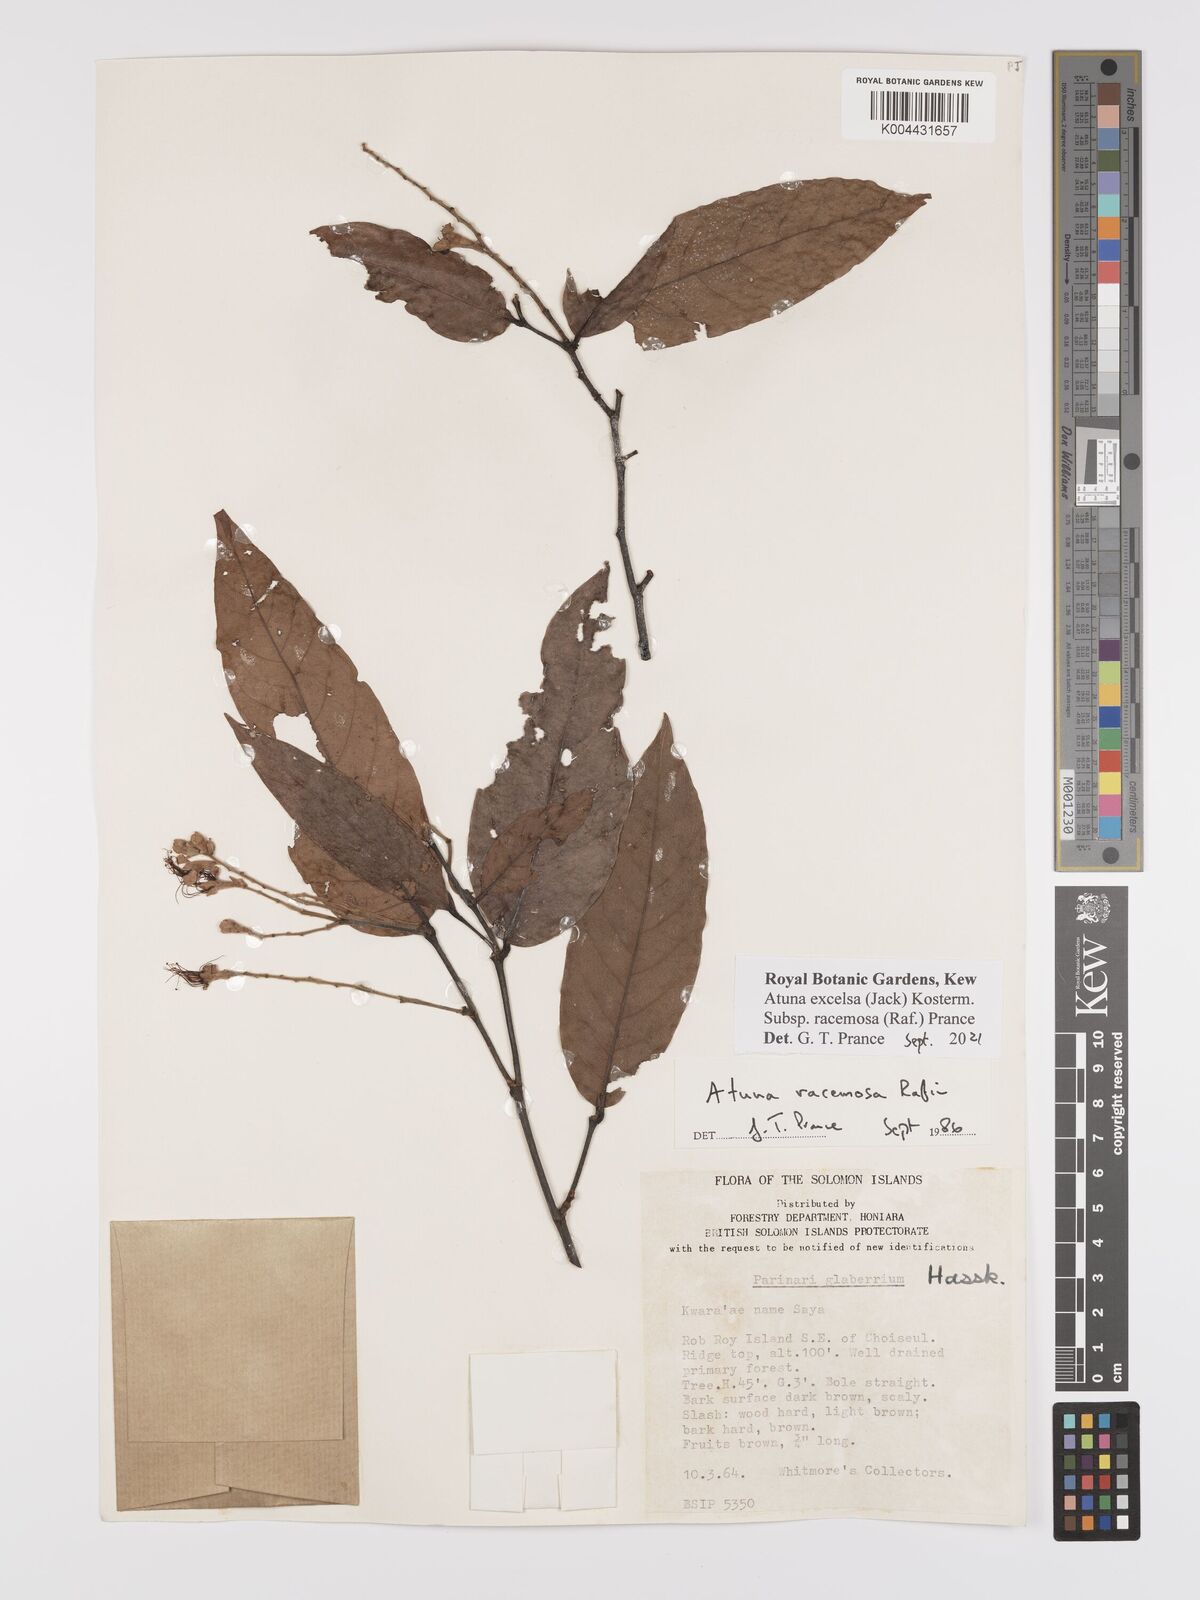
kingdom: Plantae
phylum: Tracheophyta
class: Magnoliopsida
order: Malpighiales
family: Chrysobalanaceae
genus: Atuna
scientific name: Atuna excelsa
